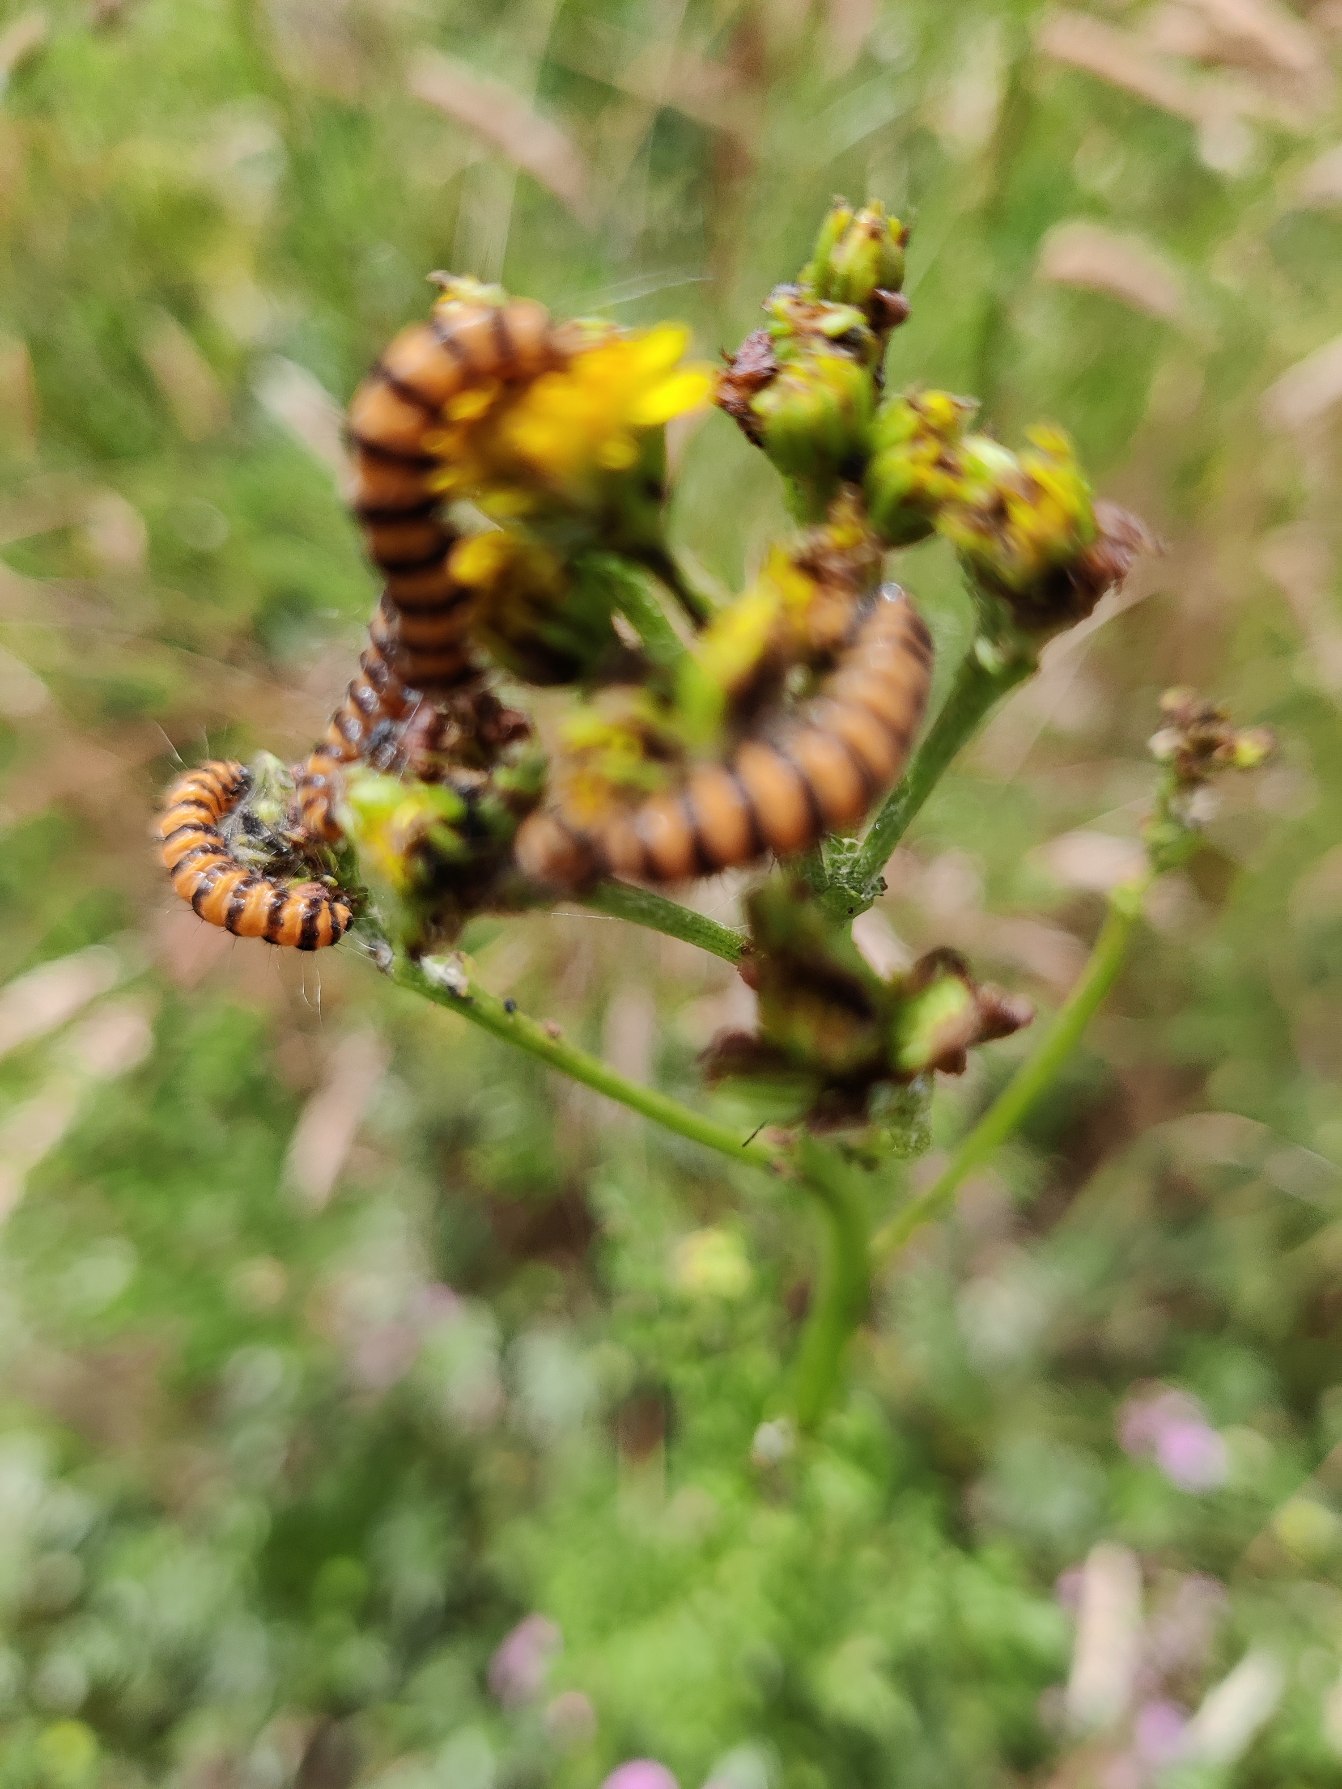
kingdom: Animalia
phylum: Arthropoda
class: Insecta
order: Lepidoptera
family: Erebidae
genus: Tyria
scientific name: Tyria jacobaeae
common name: Blodplet
